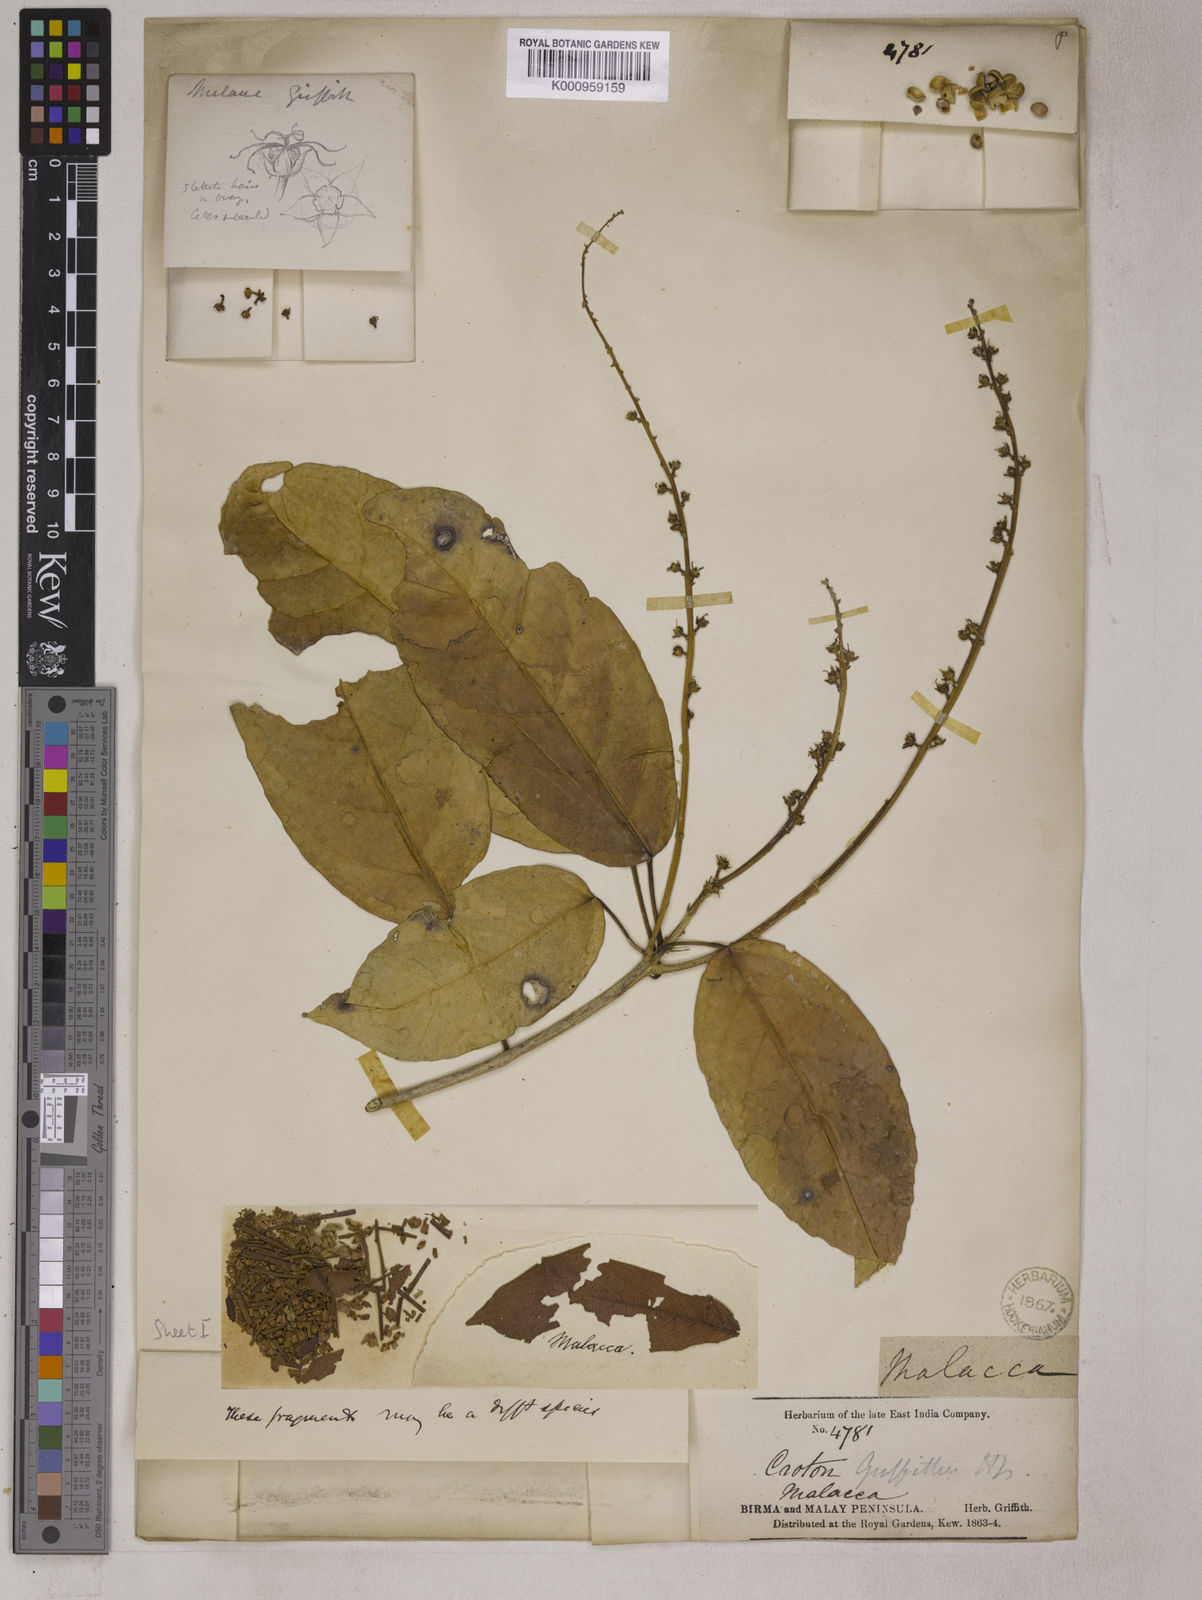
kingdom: Plantae
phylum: Tracheophyta
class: Magnoliopsida
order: Malpighiales
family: Euphorbiaceae
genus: Croton
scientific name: Croton griffithii
